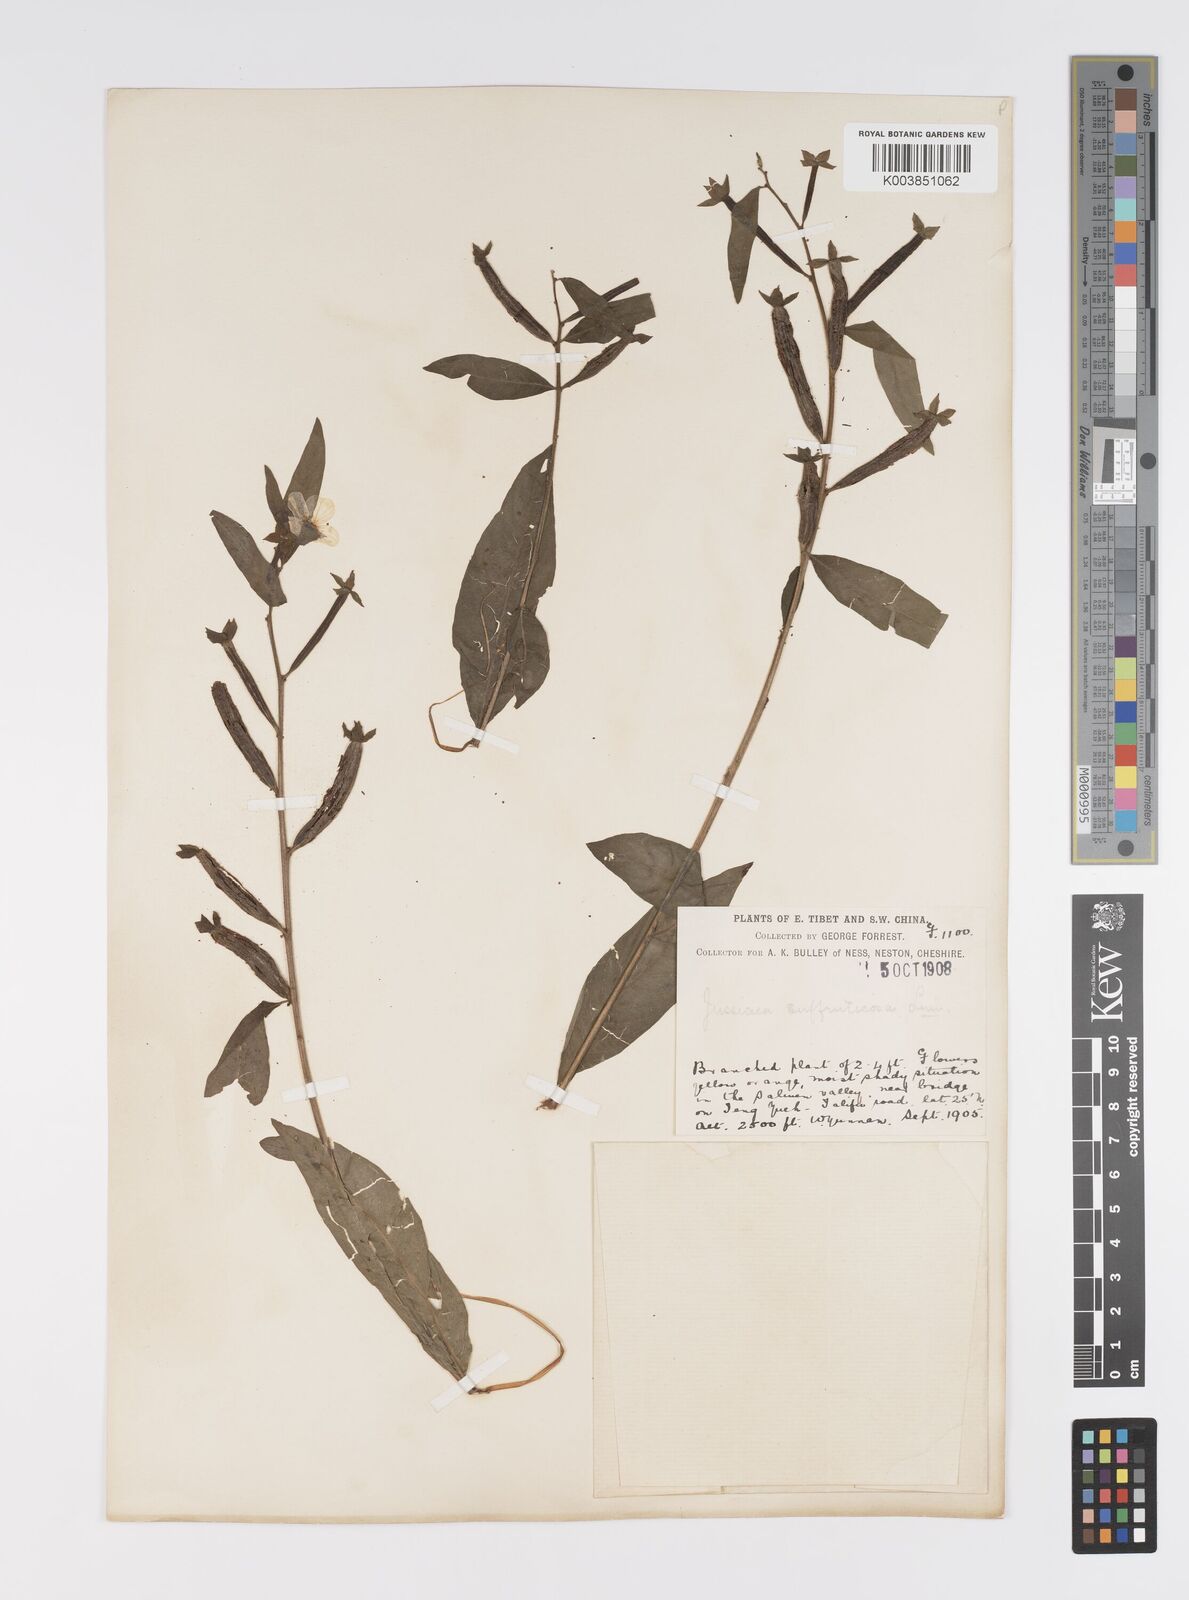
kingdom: Plantae
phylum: Tracheophyta
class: Magnoliopsida
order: Myrtales
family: Onagraceae
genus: Ludwigia
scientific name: Ludwigia octovalvis
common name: Water-primrose
